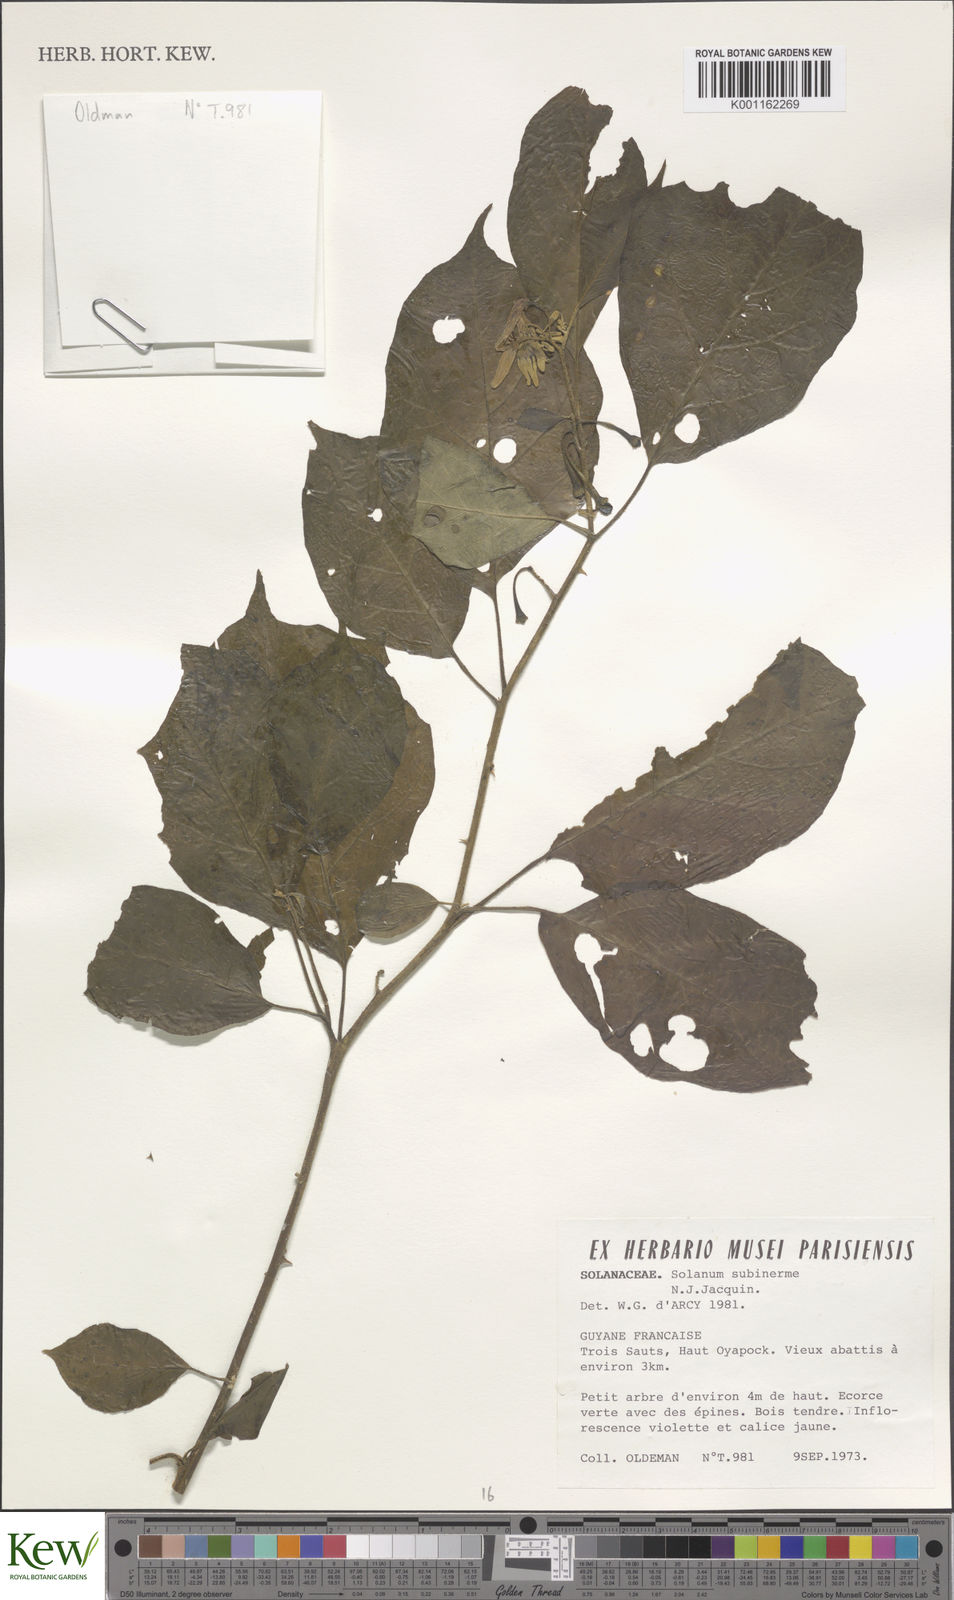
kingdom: Plantae
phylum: Tracheophyta
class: Magnoliopsida
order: Solanales
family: Solanaceae
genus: Solanum
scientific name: Solanum subinerme
